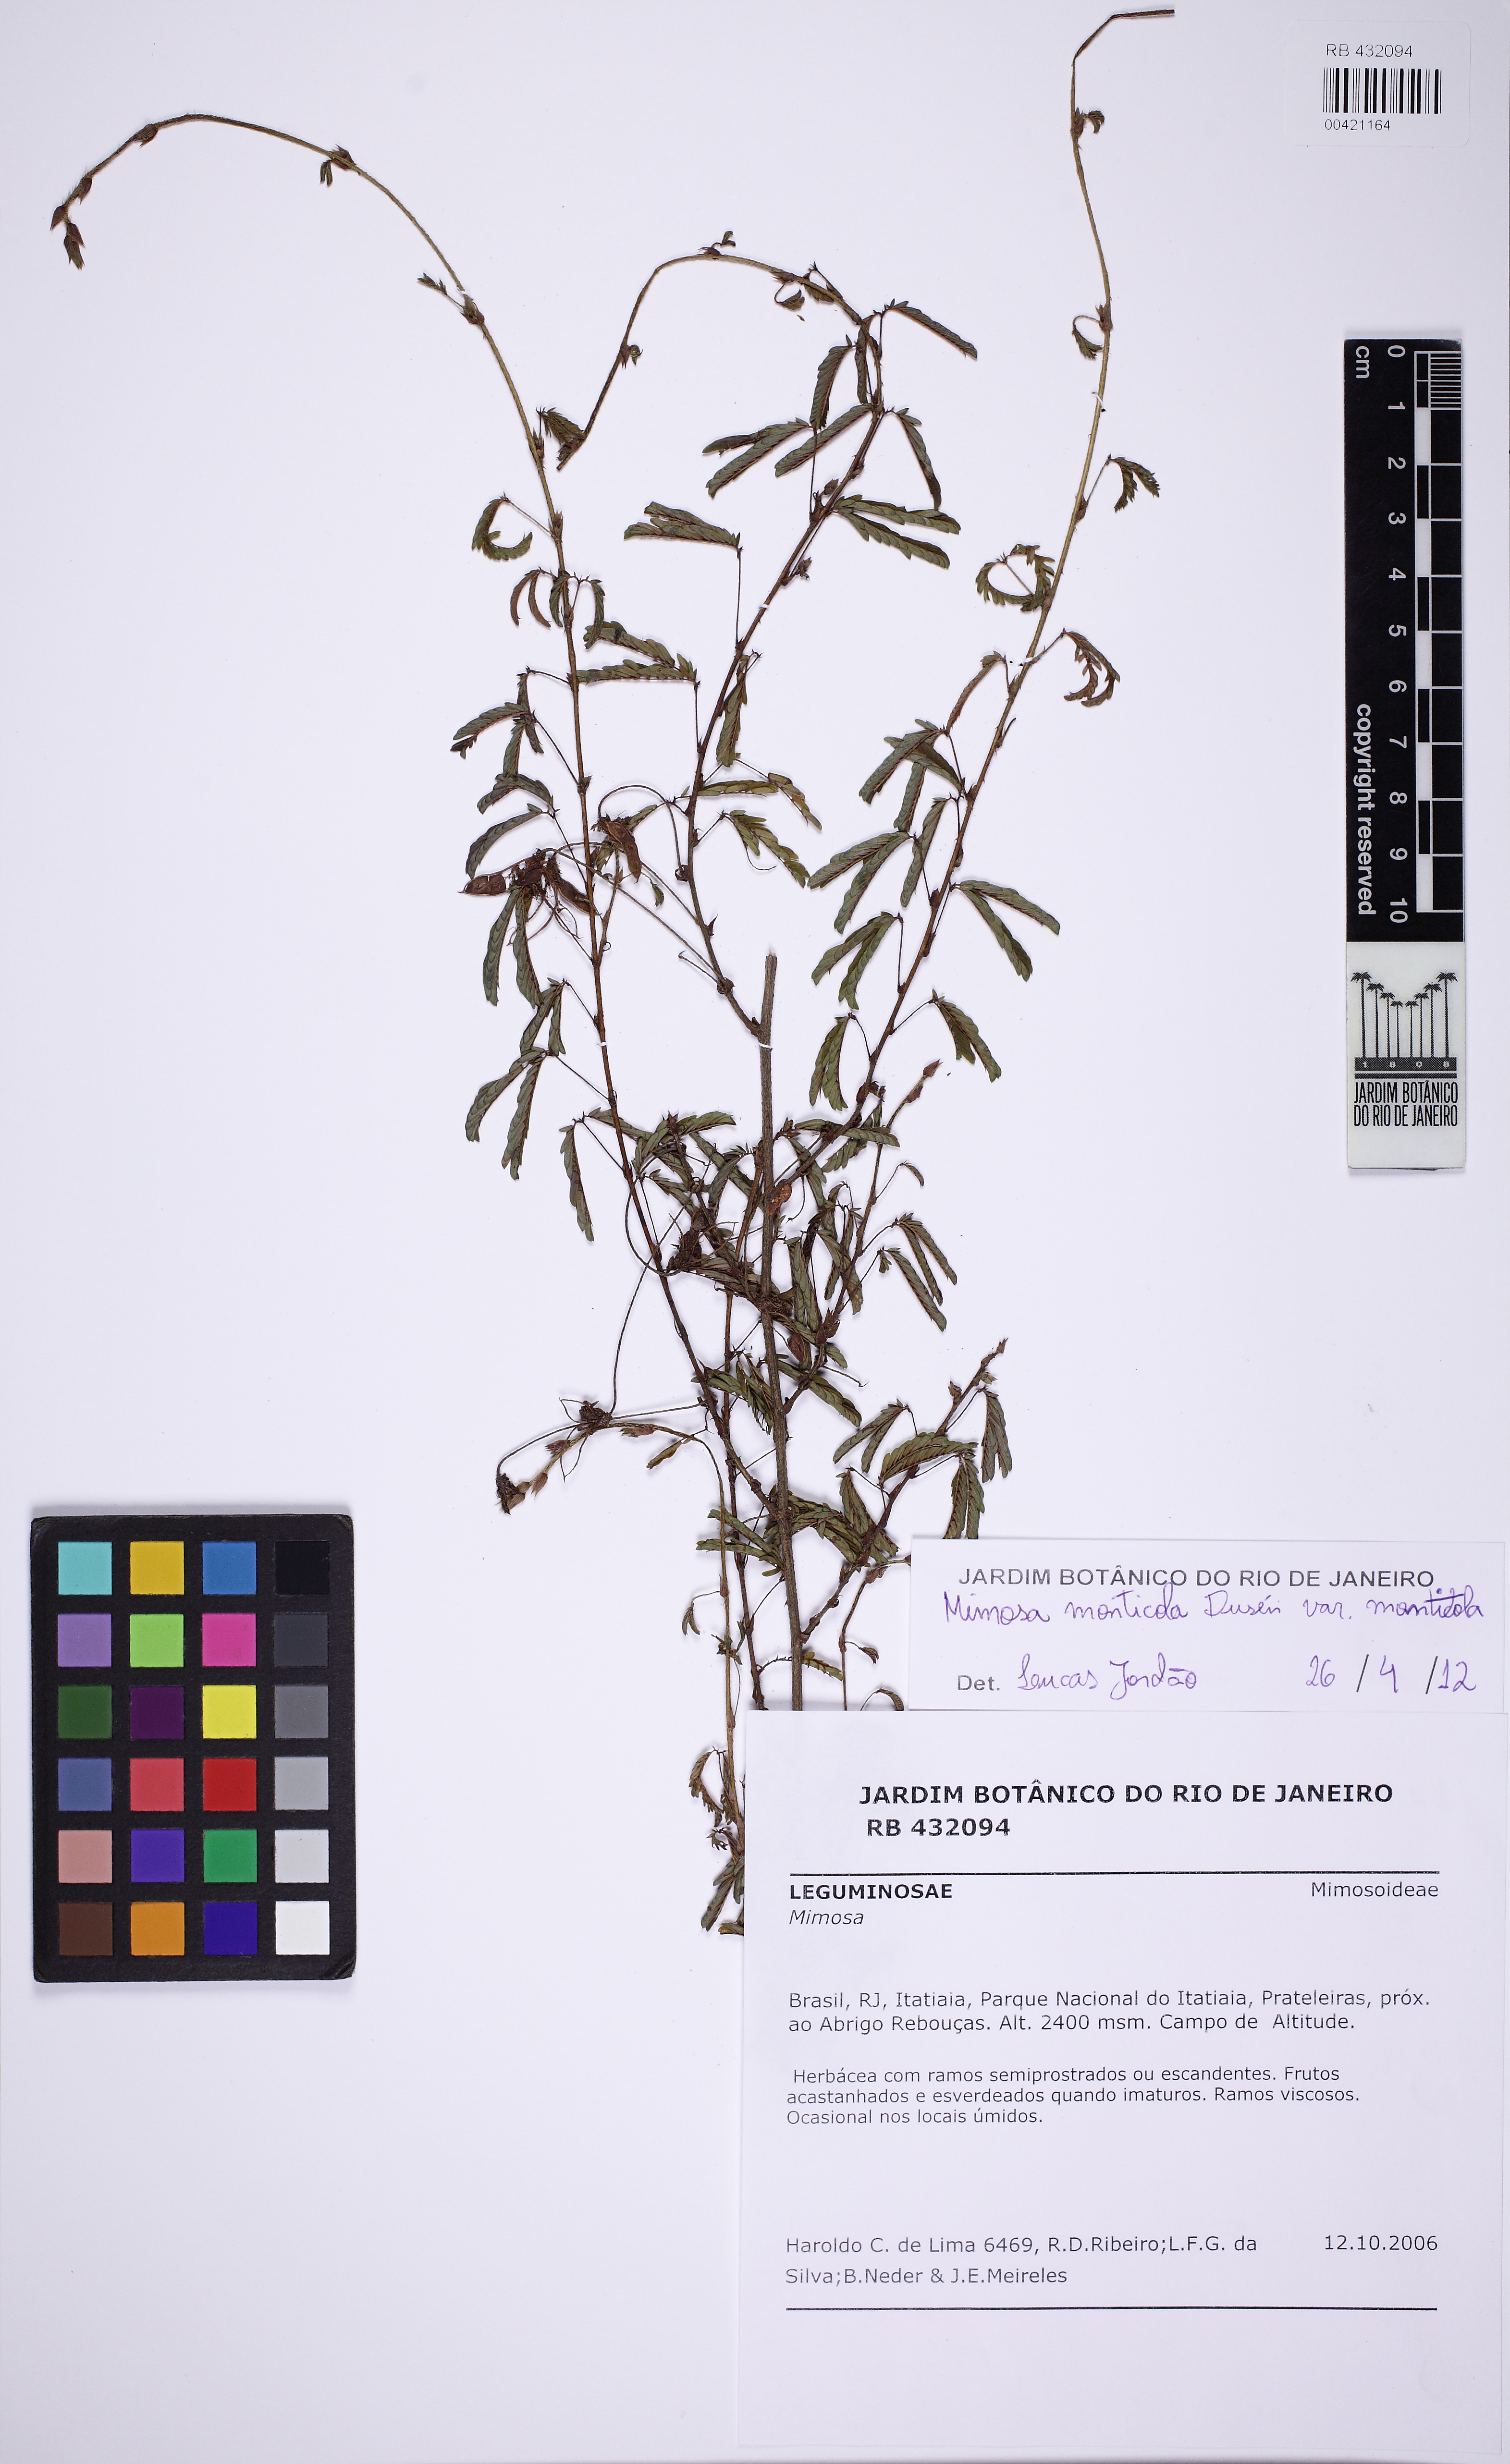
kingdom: Plantae
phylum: Tracheophyta
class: Magnoliopsida
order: Fabales
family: Fabaceae
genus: Mimosa
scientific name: Mimosa monticola
